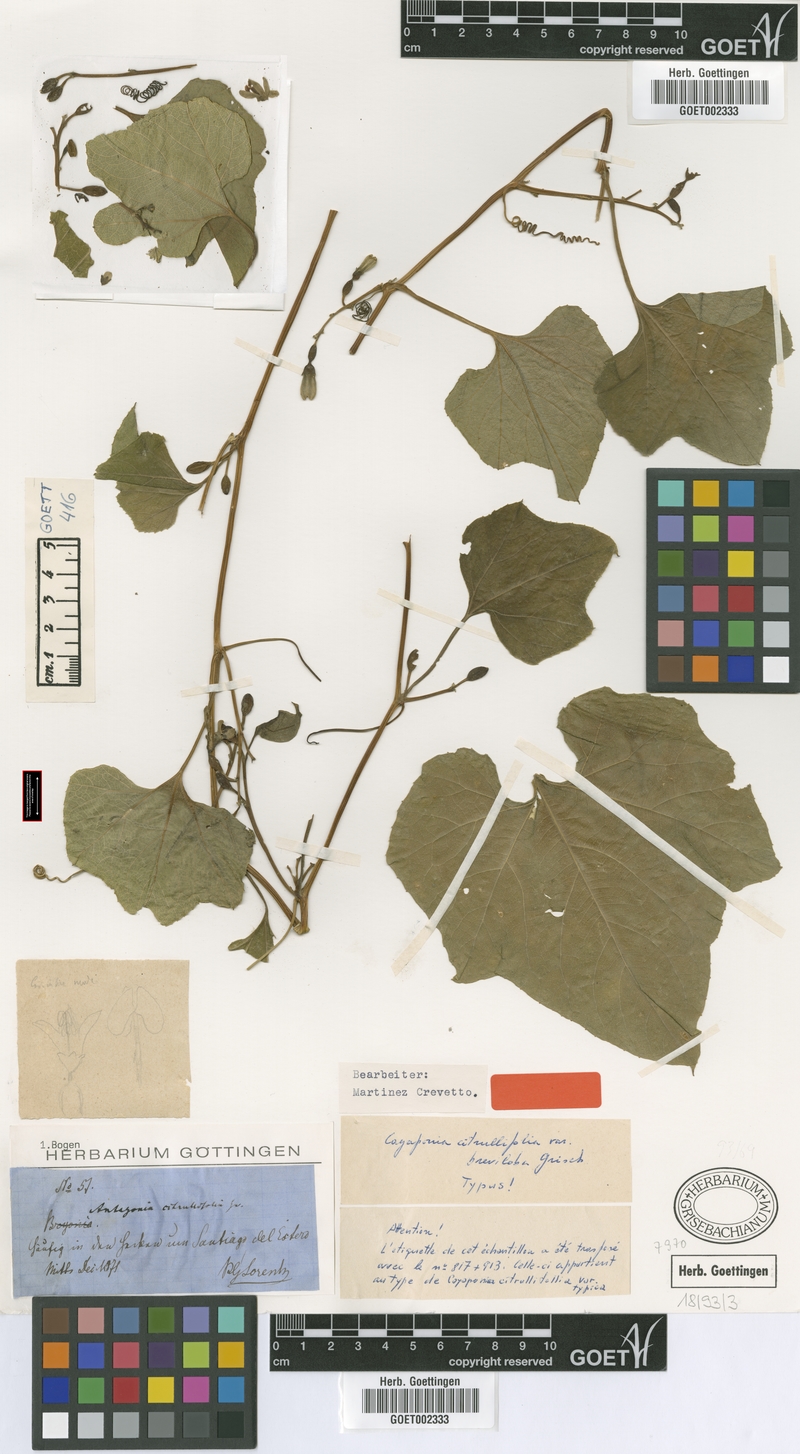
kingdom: Plantae
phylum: Tracheophyta
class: Magnoliopsida
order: Cucurbitales
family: Cucurbitaceae
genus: Cayaponia
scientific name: Cayaponia breviloba
